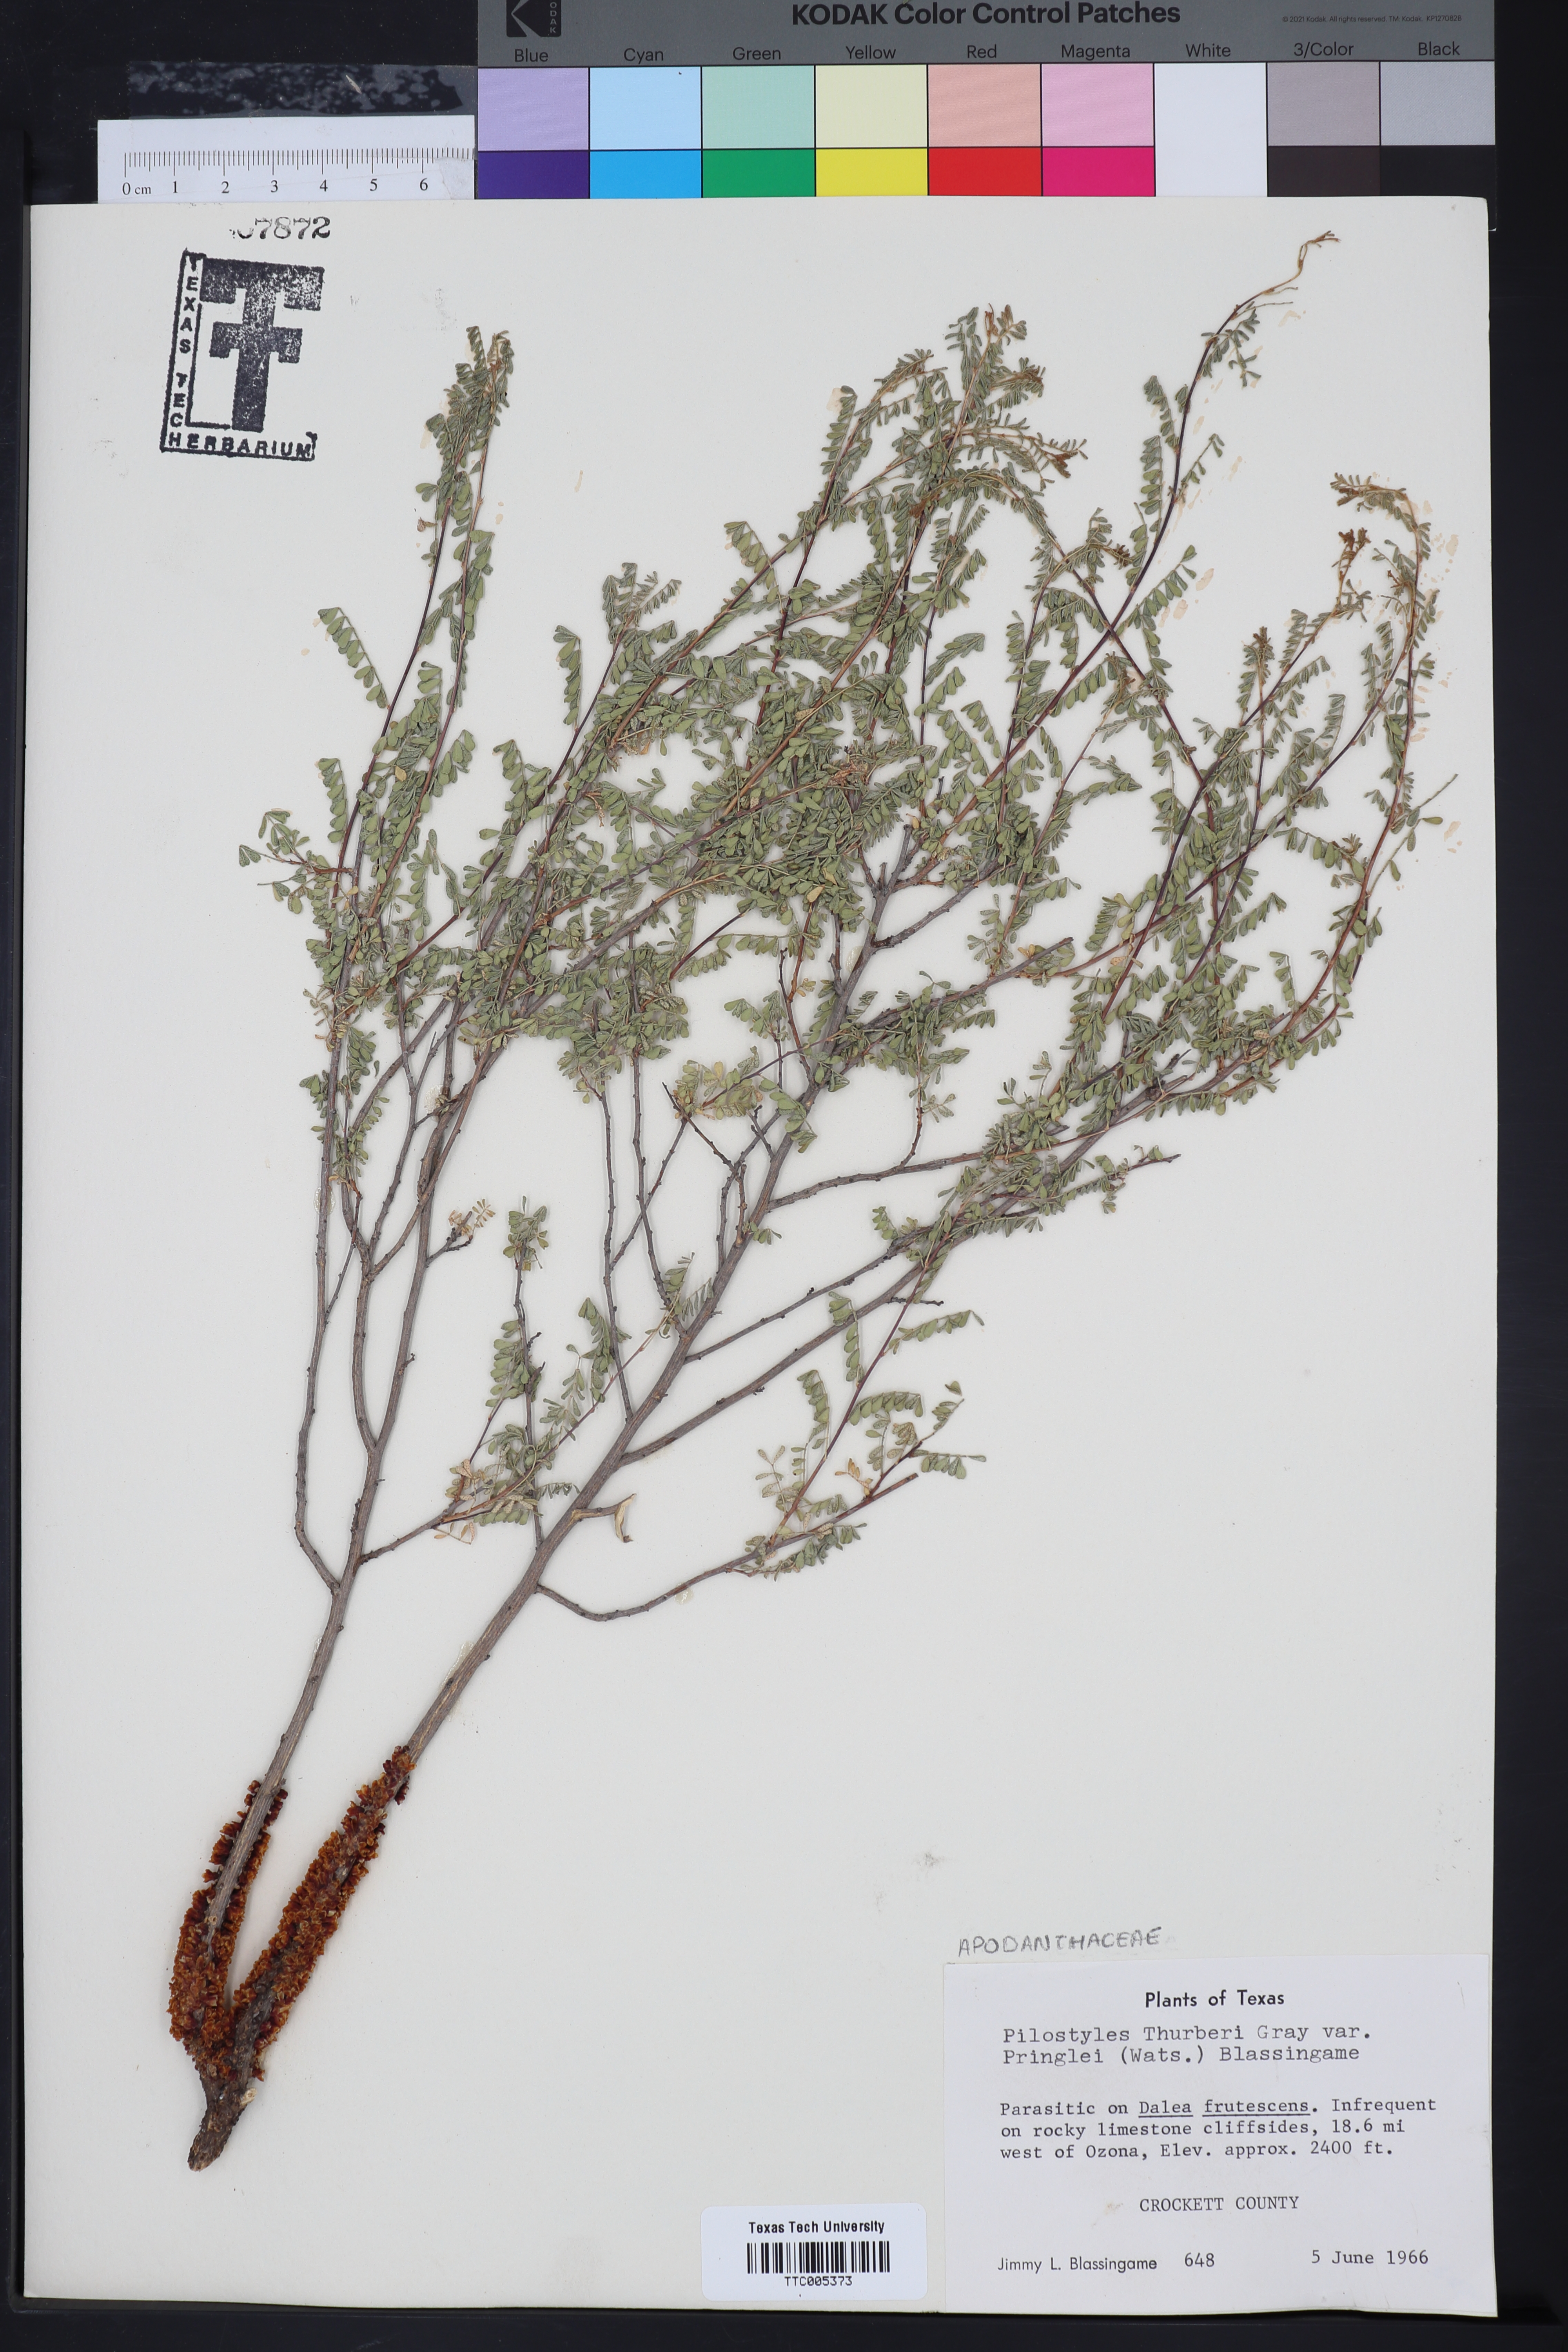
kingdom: Plantae
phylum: Tracheophyta
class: Magnoliopsida
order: Cucurbitales
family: Apodanthaceae
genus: Pilostyles
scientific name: Pilostyles thurberi
